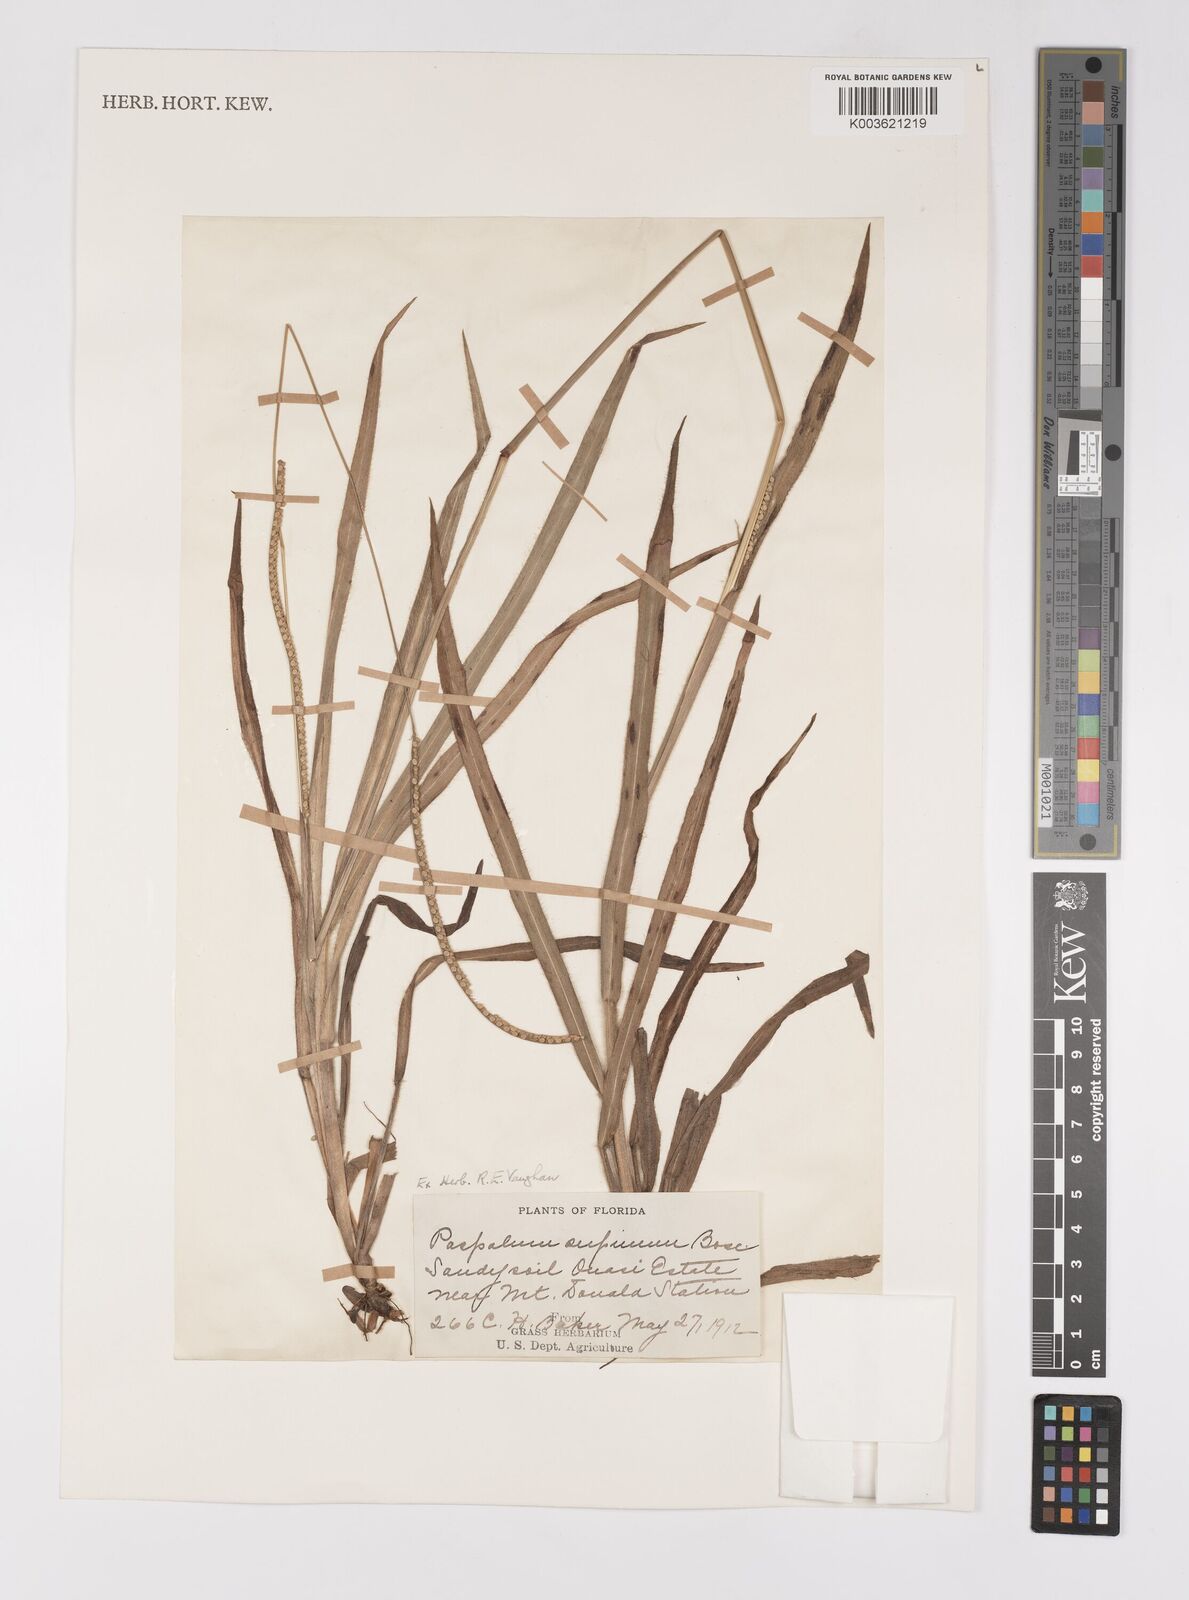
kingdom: Plantae
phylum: Tracheophyta
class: Liliopsida
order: Poales
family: Poaceae
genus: Paspalum
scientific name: Paspalum setaceum
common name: Slender paspalum
